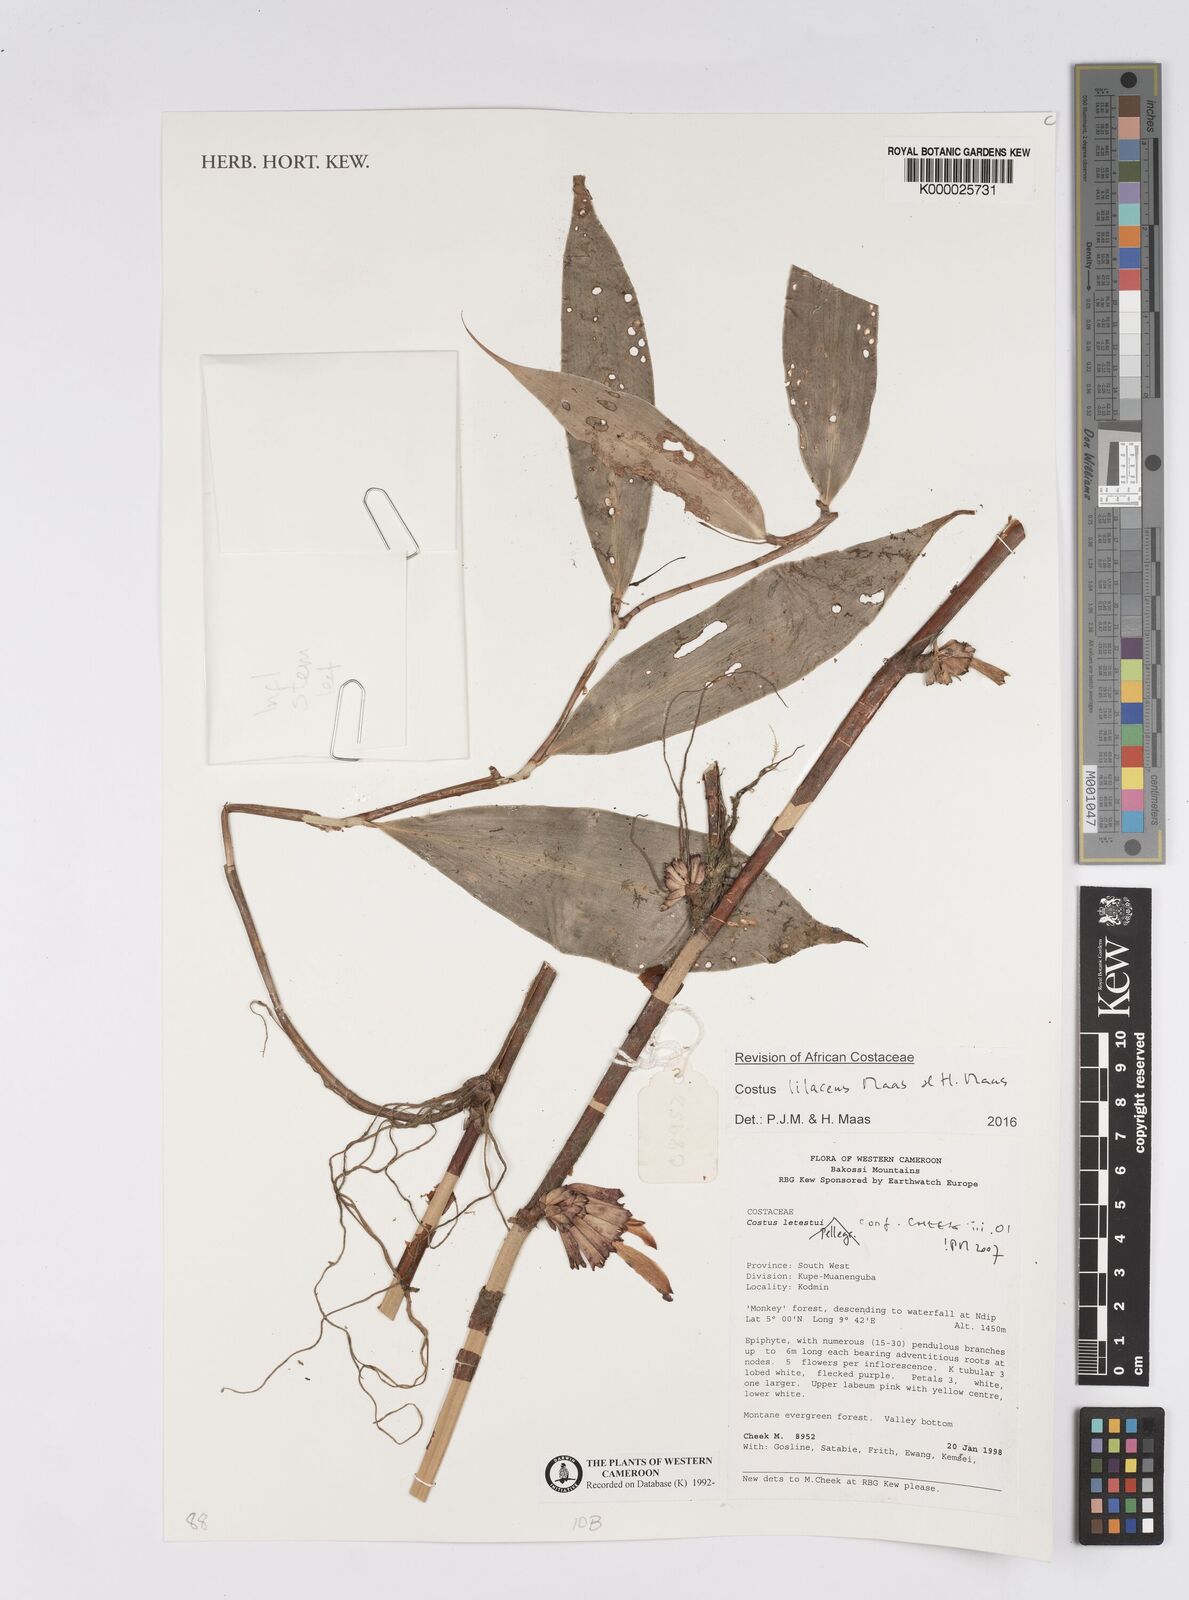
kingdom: Plantae
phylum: Tracheophyta
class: Liliopsida
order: Zingiberales
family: Costaceae
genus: Costus
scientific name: Costus lilaceus
